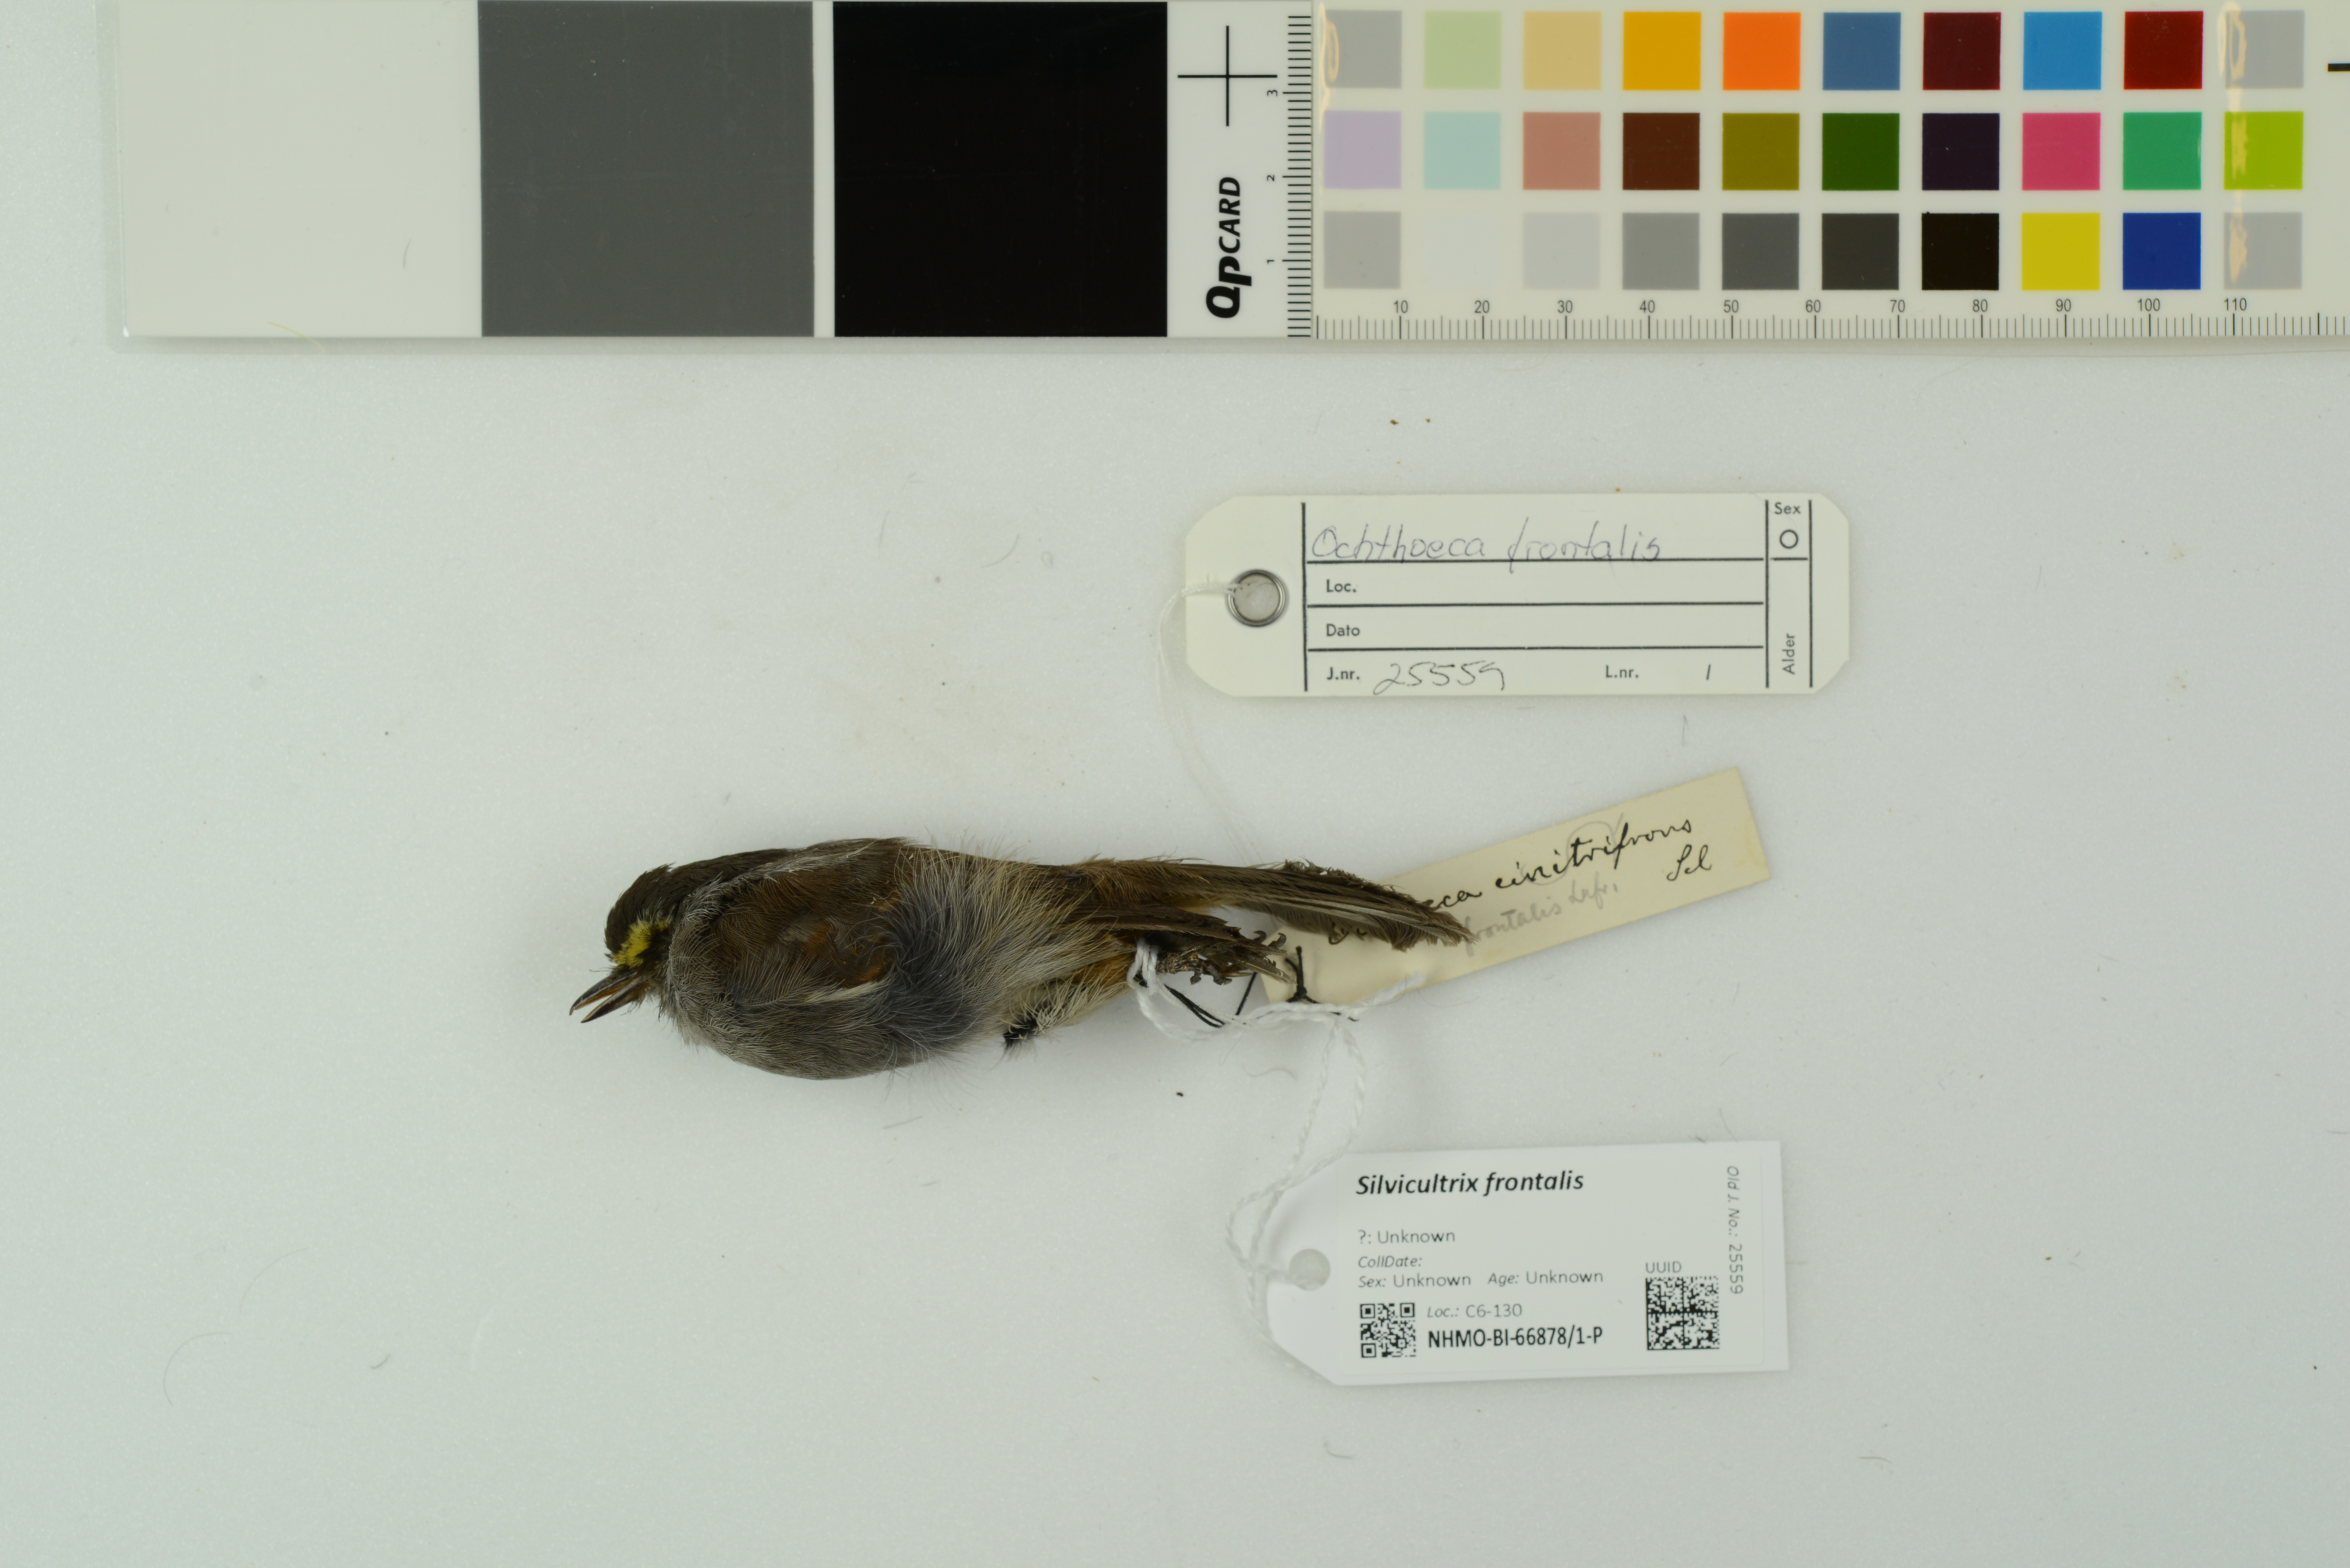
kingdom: Animalia
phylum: Chordata
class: Aves
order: Passeriformes
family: Tyrannidae
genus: Ochthoeca
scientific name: Ochthoeca frontalis
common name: Crowned chat-tyrant
